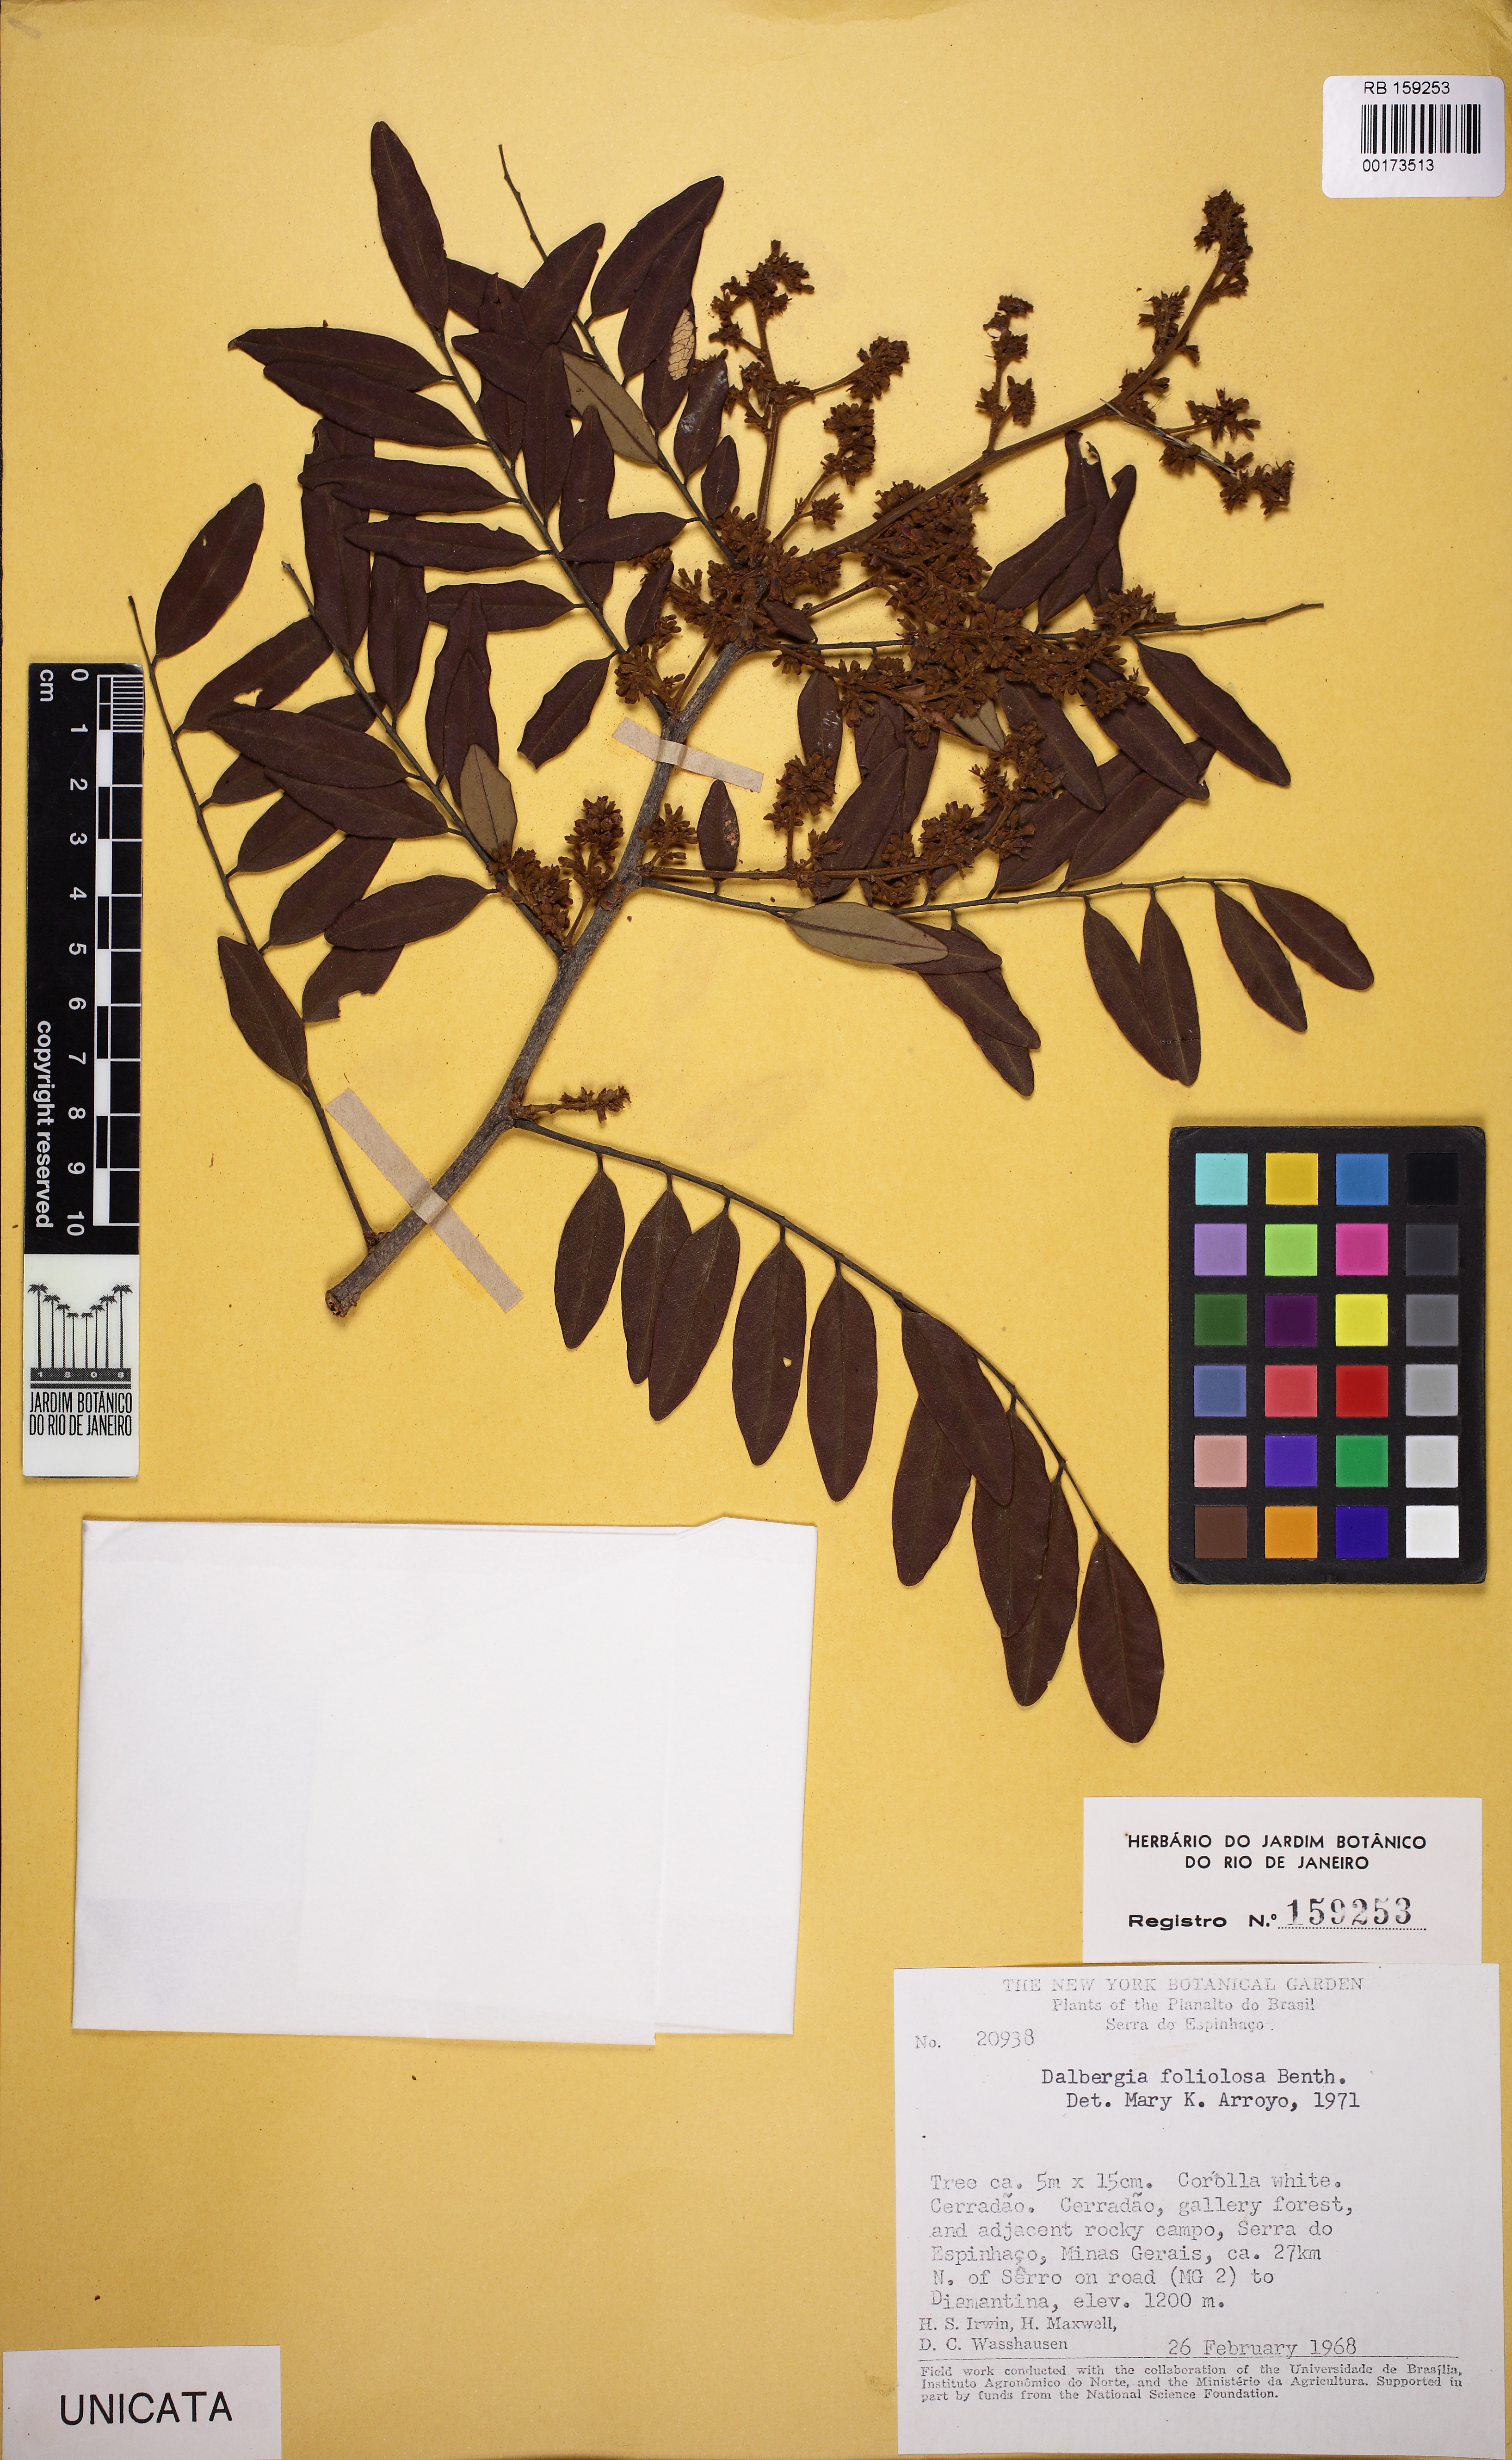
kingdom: Plantae
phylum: Tracheophyta
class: Magnoliopsida
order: Fabales
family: Fabaceae
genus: Dalbergia
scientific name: Dalbergia foliolosa
